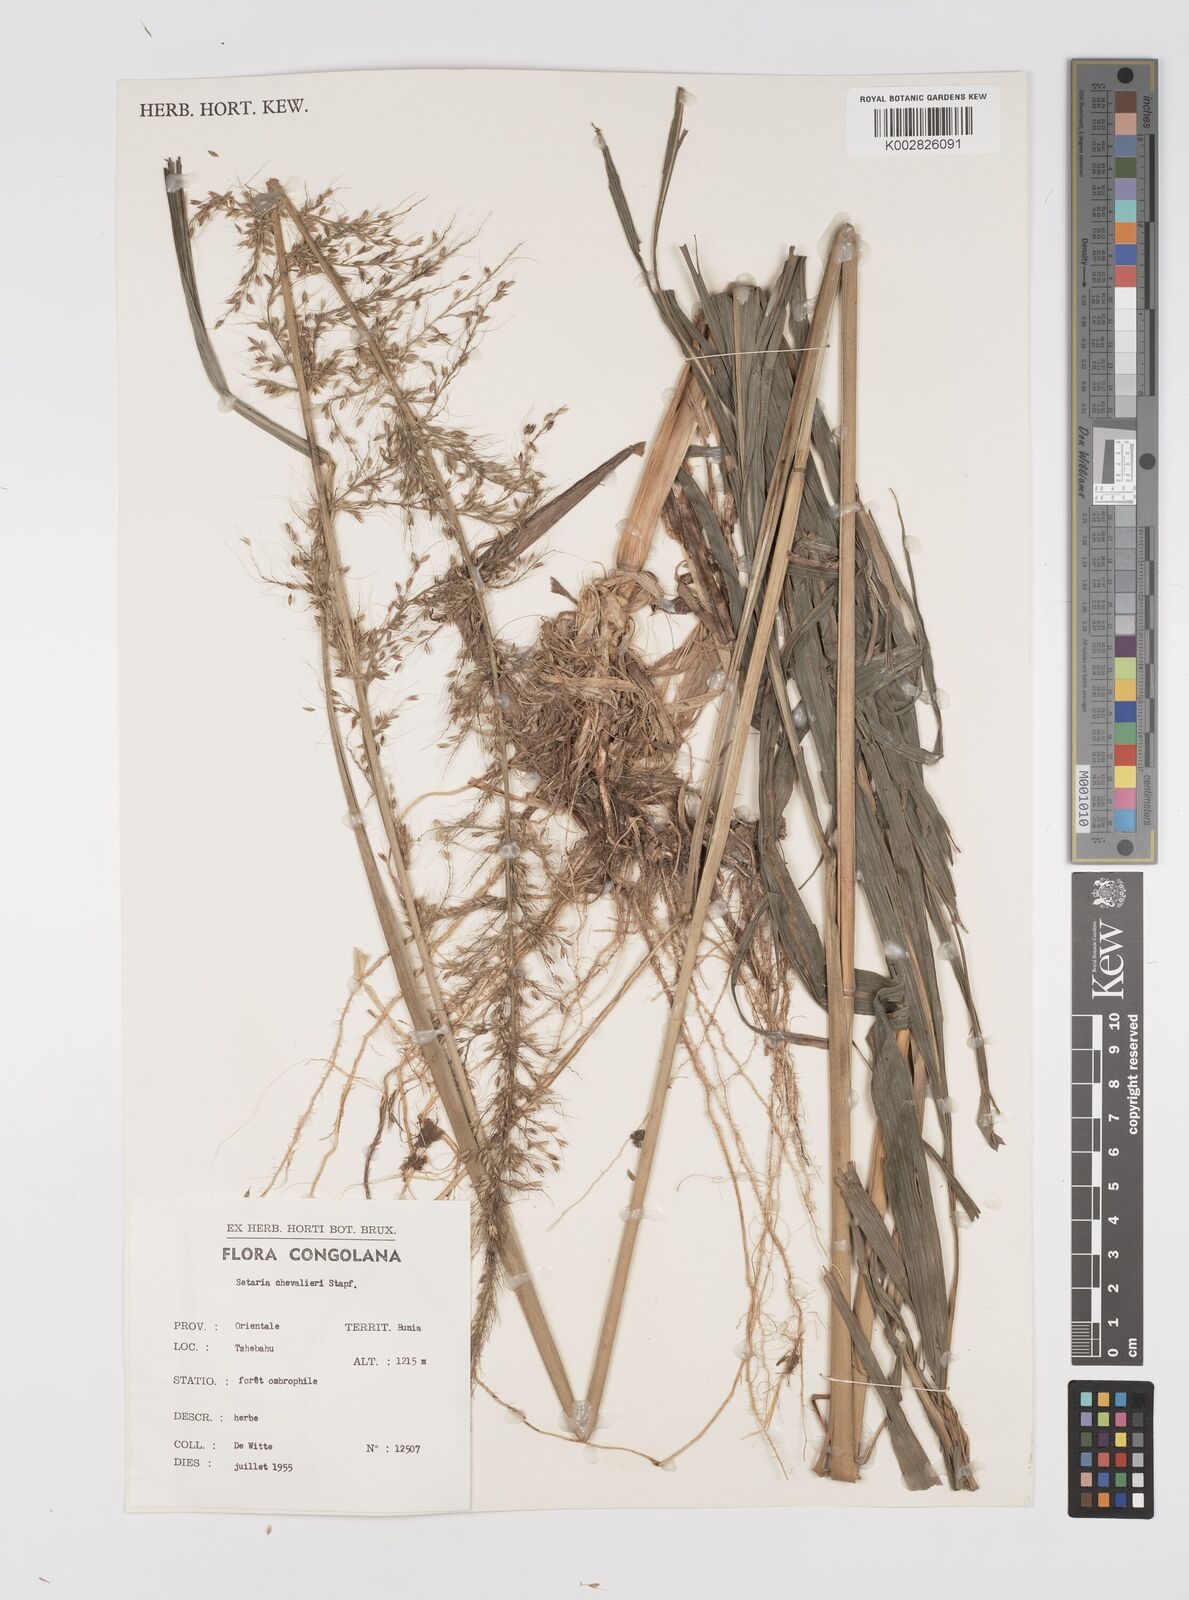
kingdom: Plantae
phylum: Tracheophyta
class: Liliopsida
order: Poales
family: Poaceae
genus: Setaria
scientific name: Setaria poiretiana
